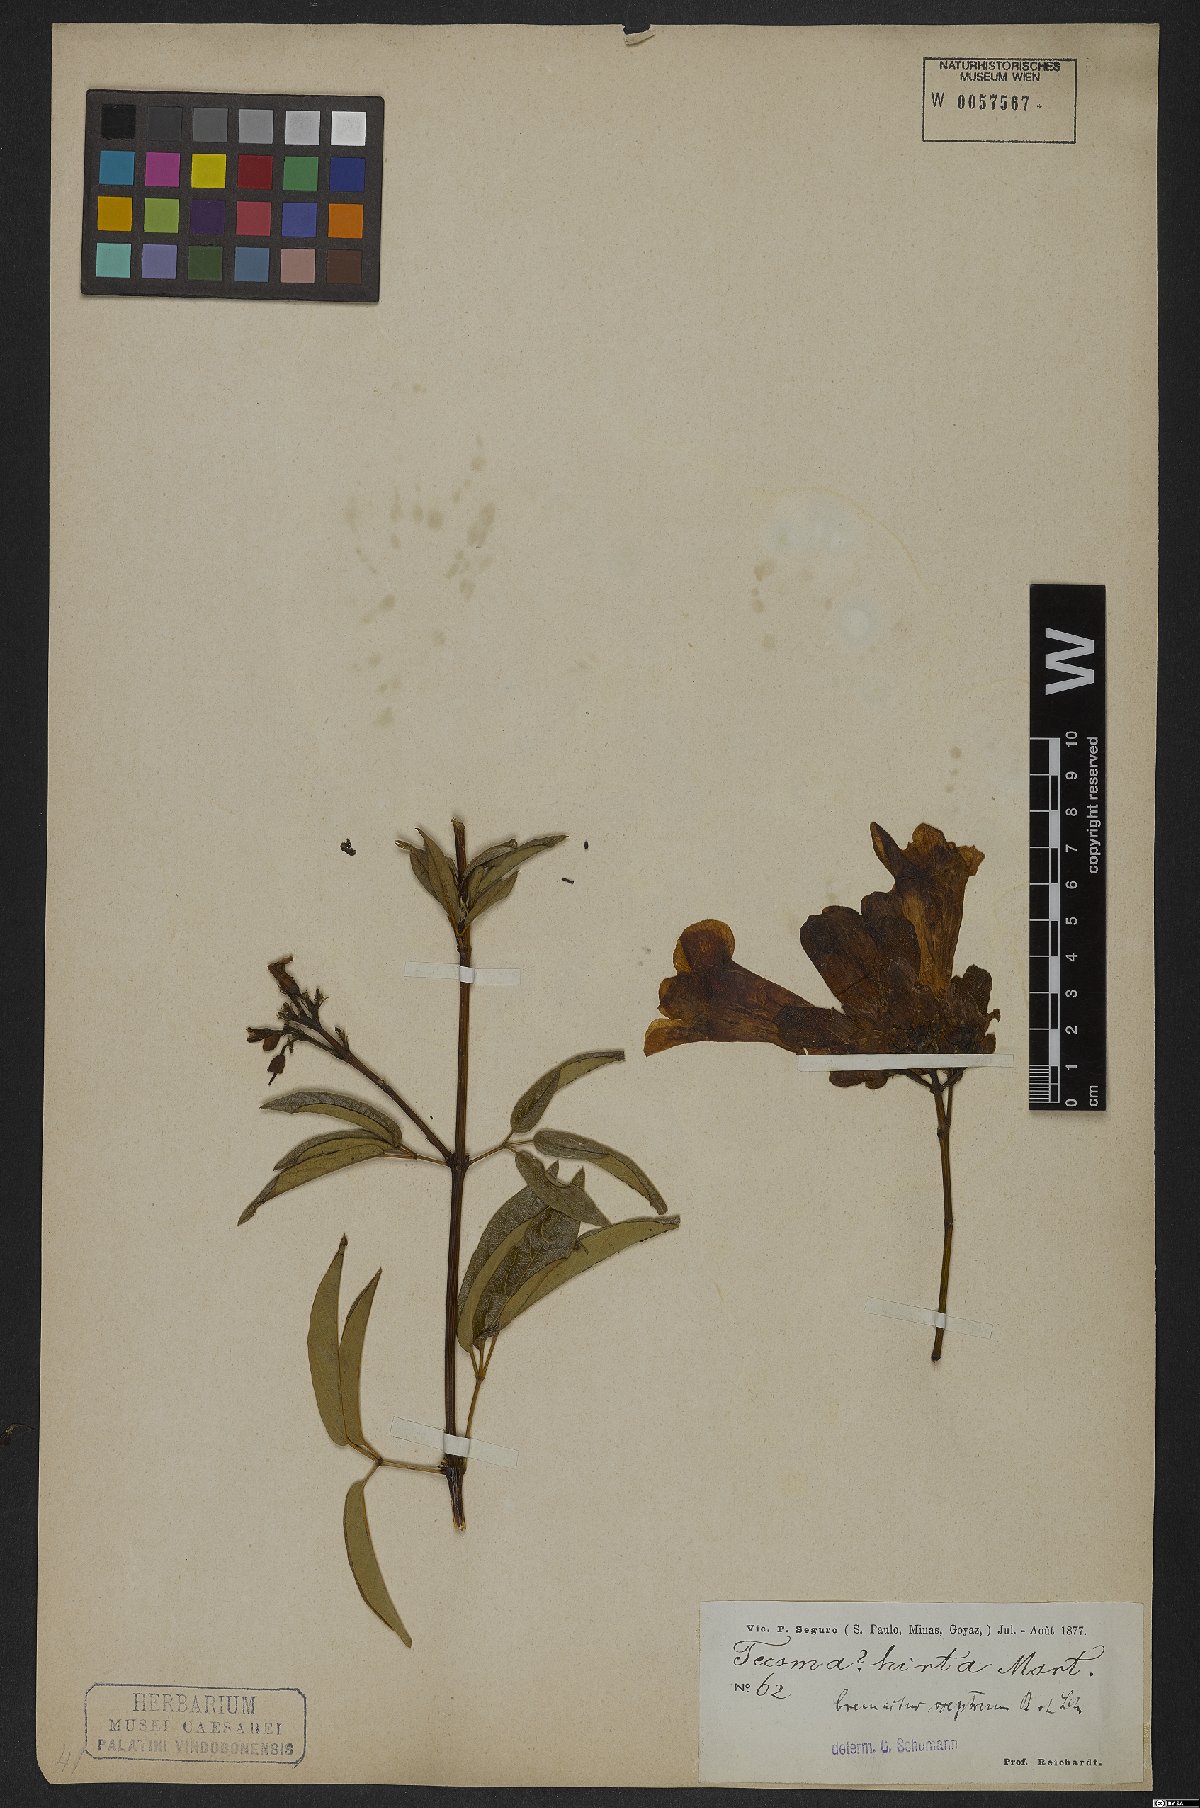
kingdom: Plantae
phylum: Tracheophyta
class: Magnoliopsida
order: Lamiales
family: Bignoniaceae
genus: Cuspidaria
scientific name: Cuspidaria sceptrum
